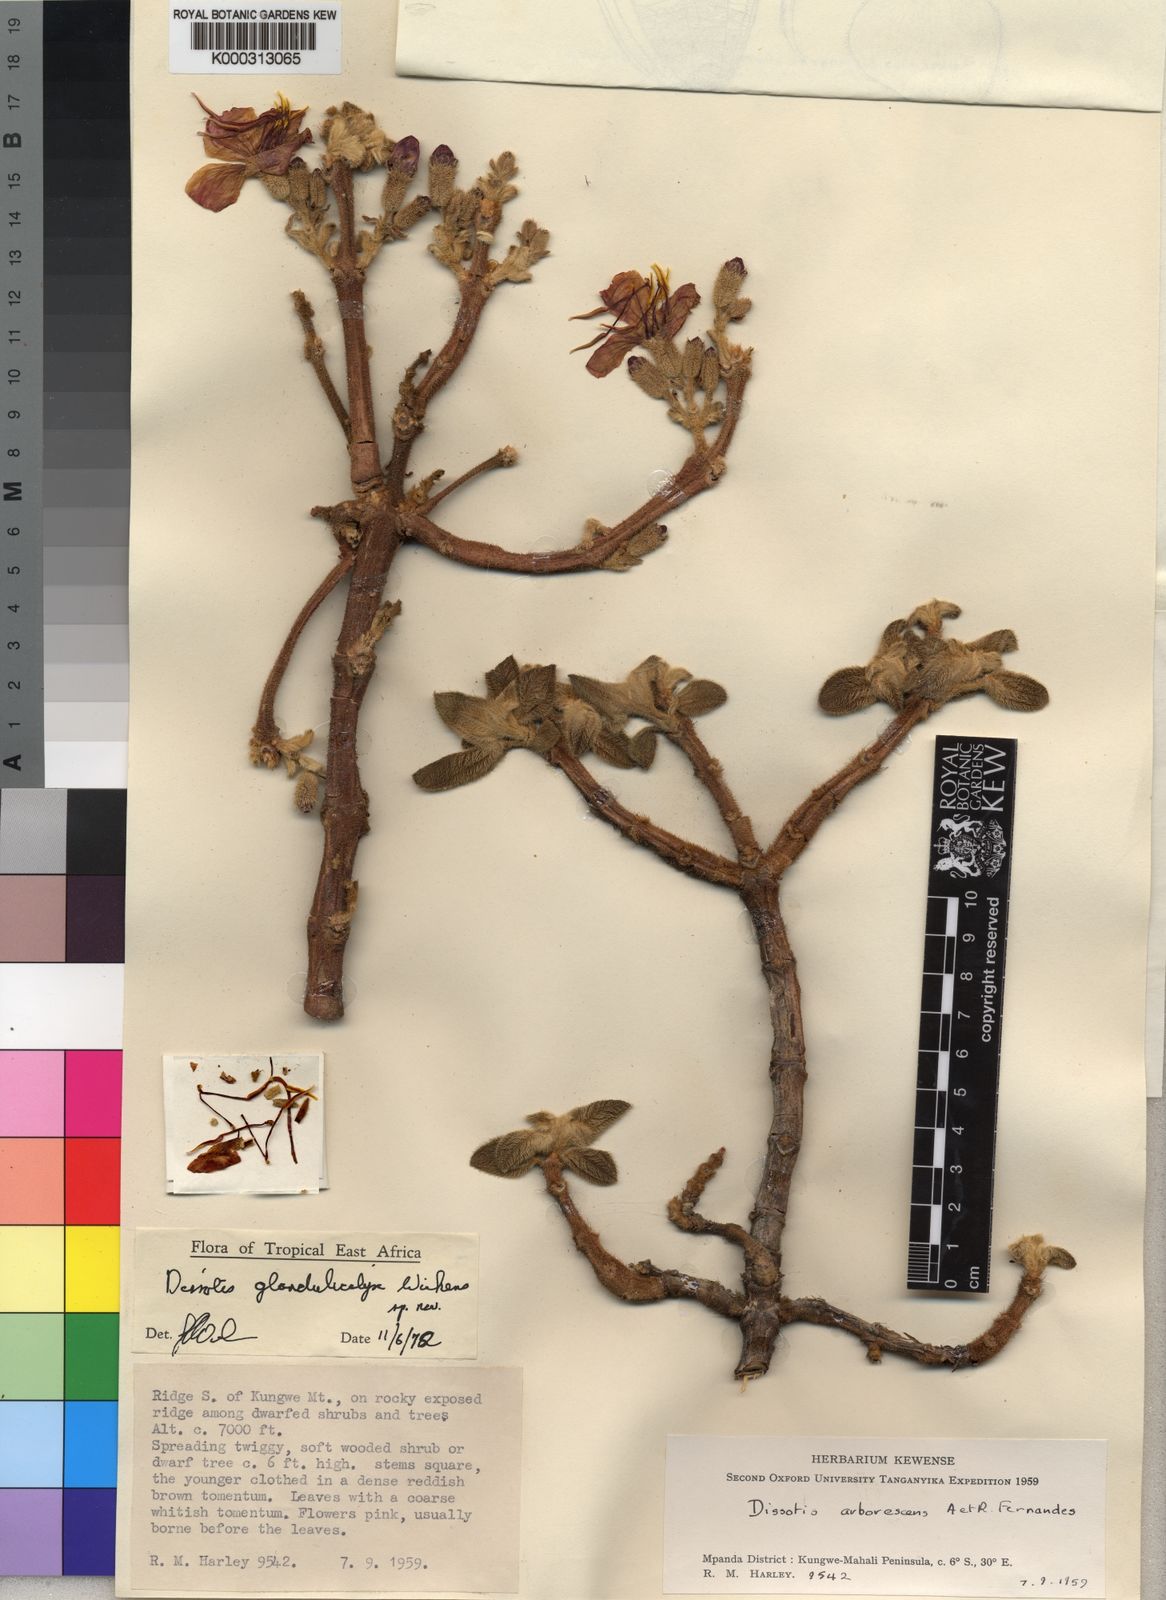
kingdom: Plantae
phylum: Tracheophyta
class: Magnoliopsida
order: Myrtales
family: Melastomataceae
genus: Dissotidendron
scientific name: Dissotidendron glandulicalyx
